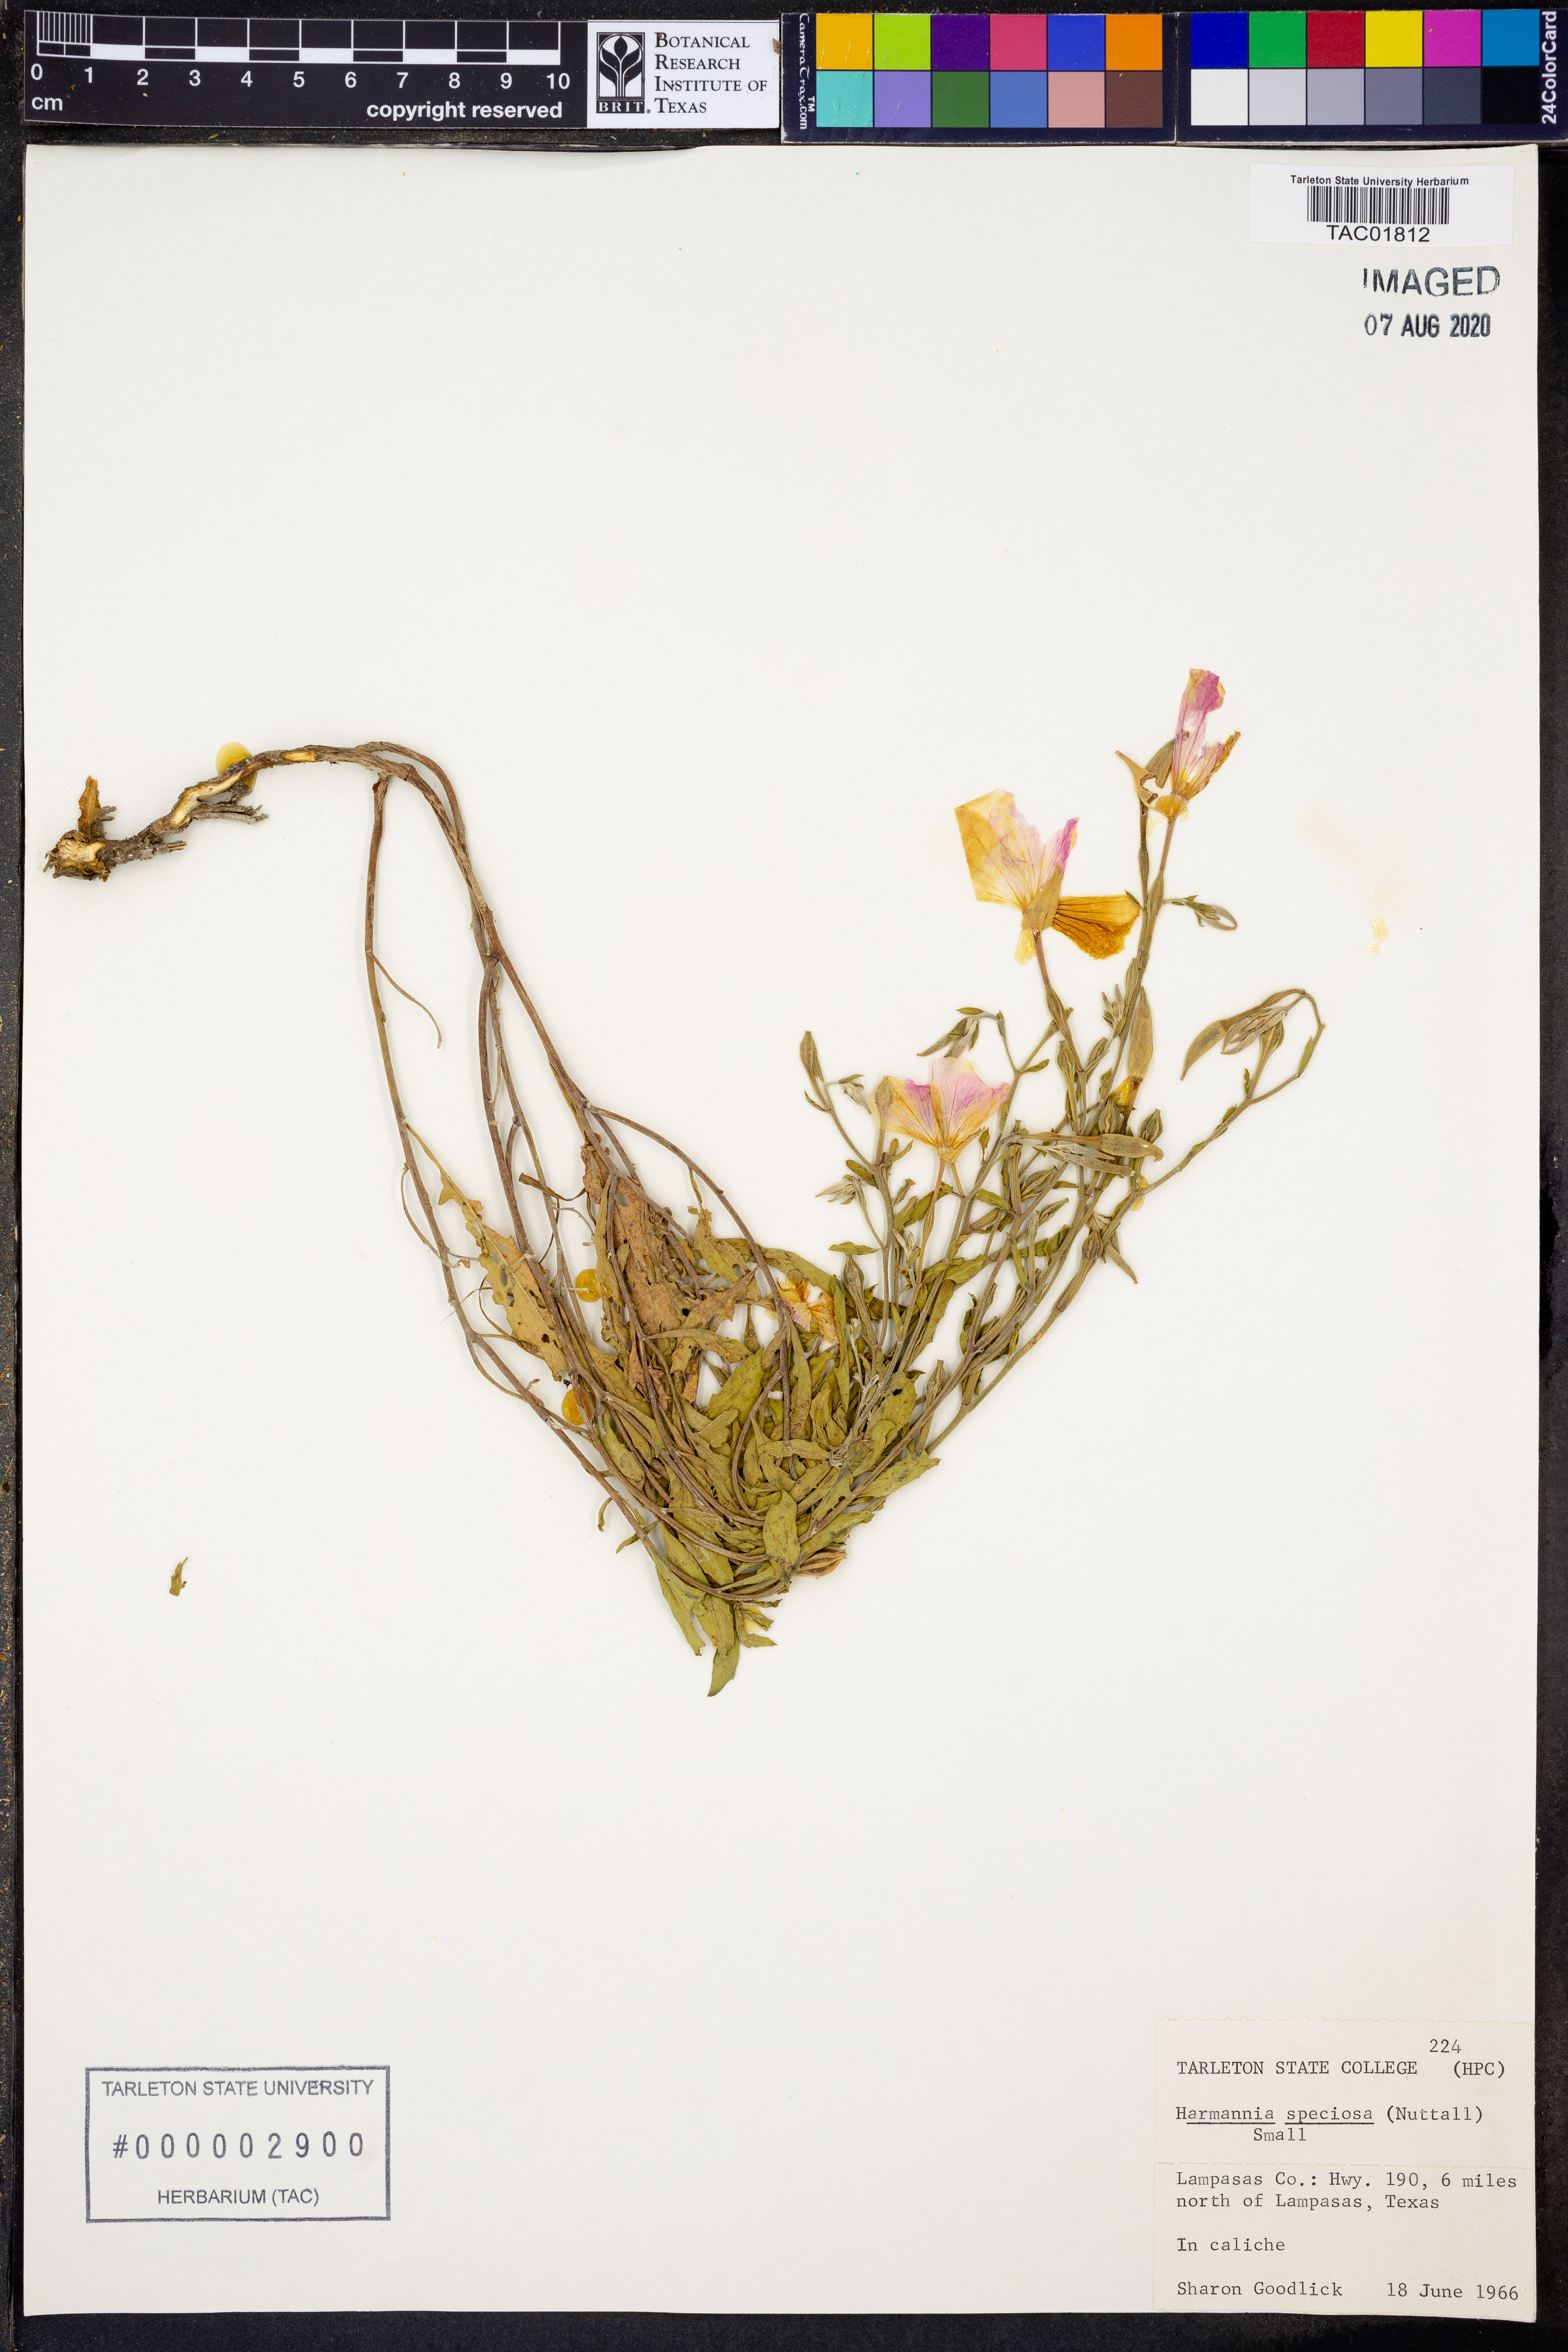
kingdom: Plantae
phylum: Tracheophyta
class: Magnoliopsida
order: Myrtales
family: Onagraceae
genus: Oenothera
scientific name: Oenothera speciosa
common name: White evening-primrose
